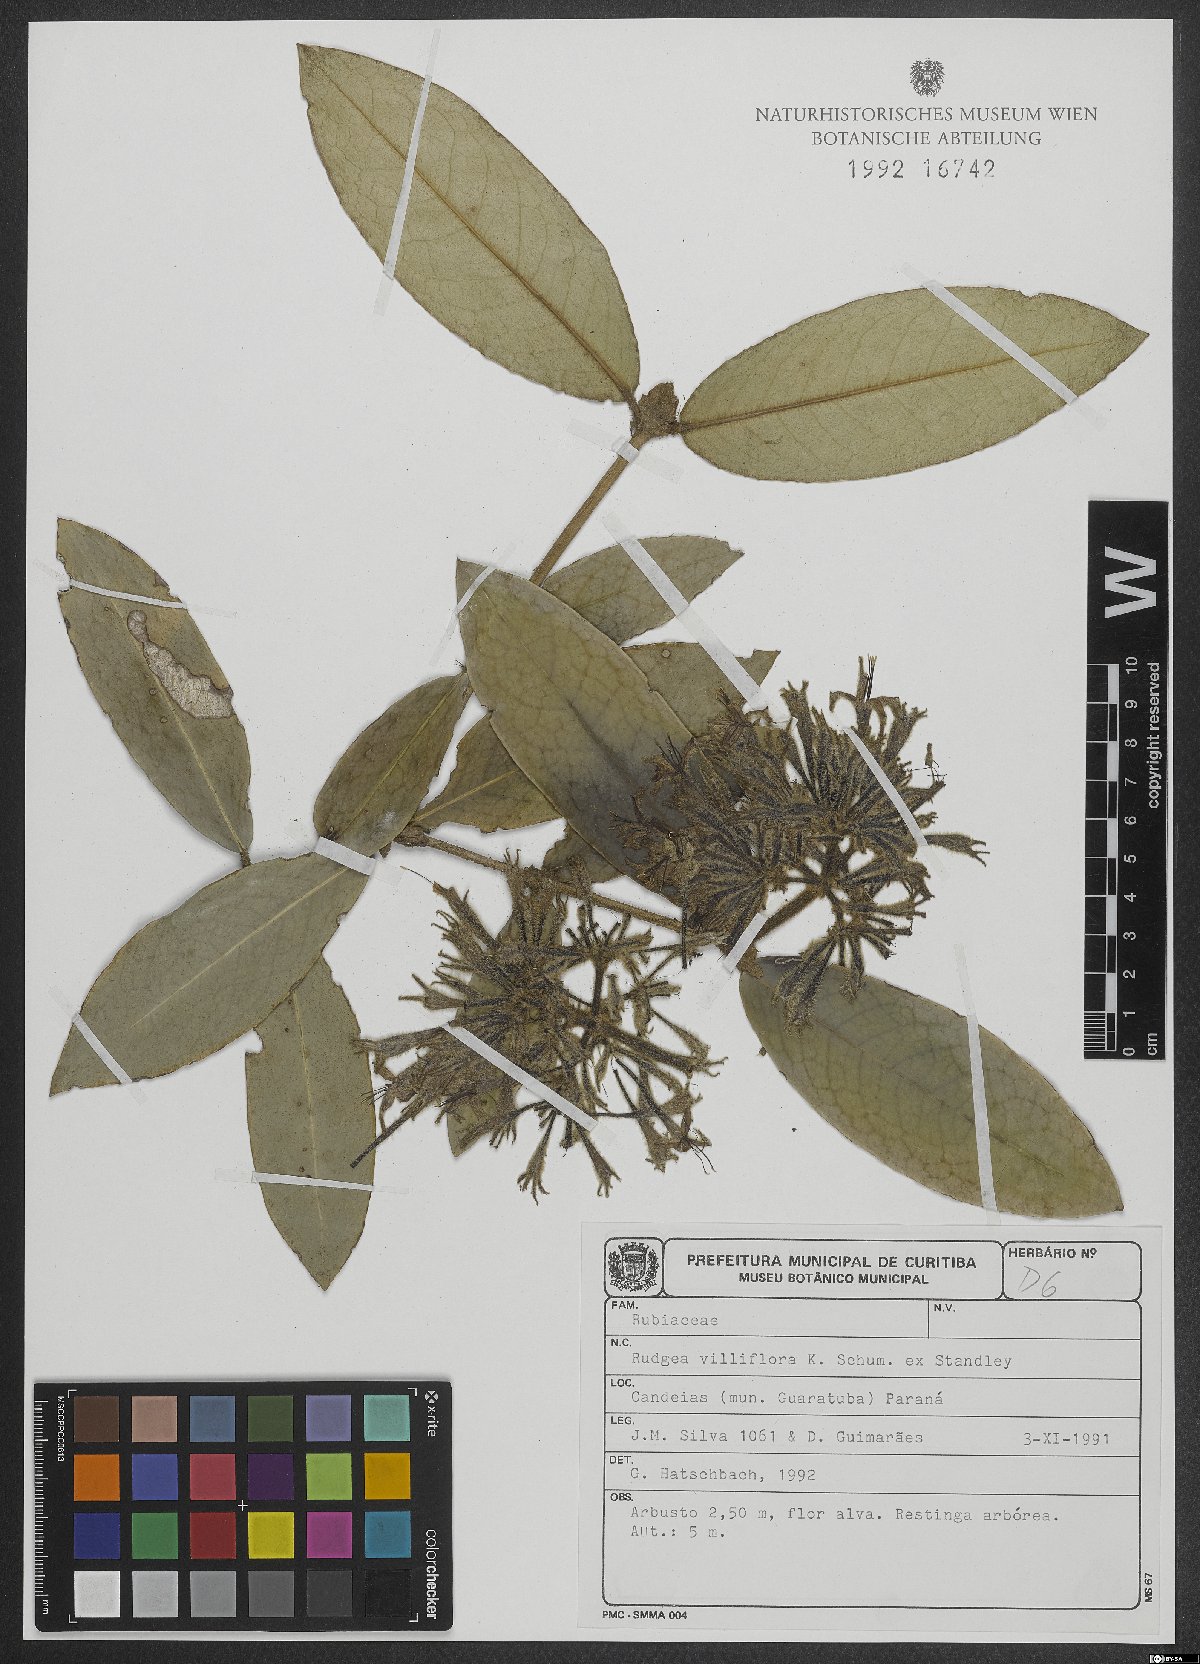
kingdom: Plantae
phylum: Tracheophyta
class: Magnoliopsida
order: Gentianales
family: Rubiaceae
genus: Rudgea
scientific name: Rudgea villiflora
